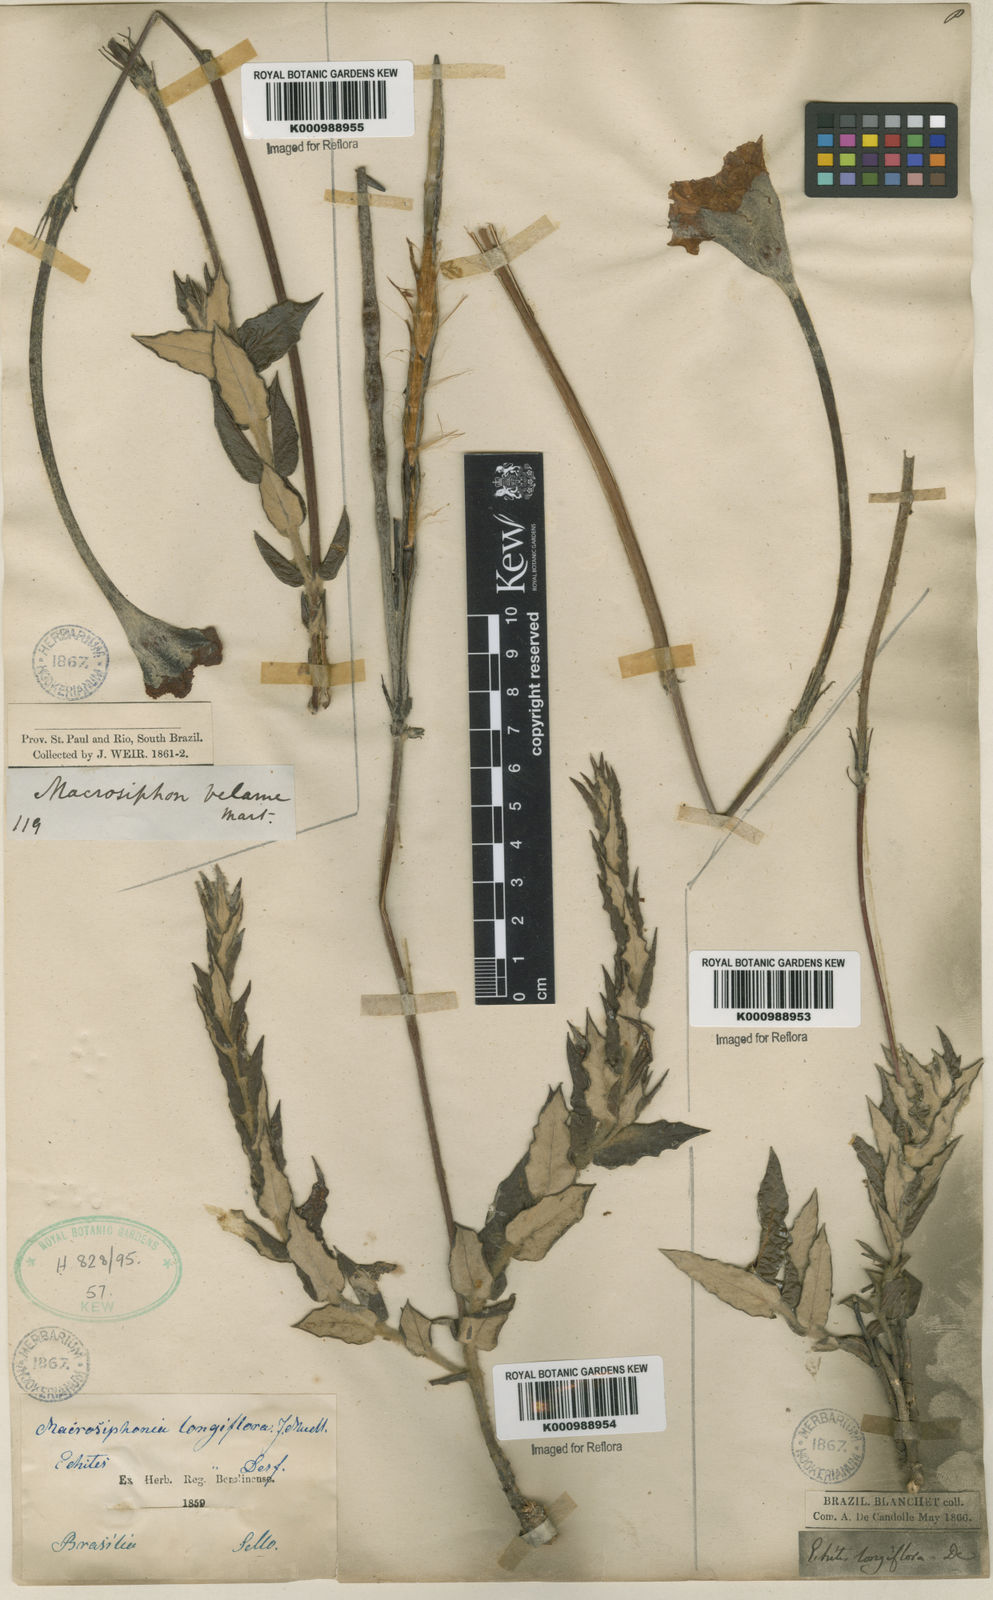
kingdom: Plantae
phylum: Tracheophyta
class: Magnoliopsida
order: Gentianales
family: Apocynaceae
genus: Mandevilla
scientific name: Mandevilla longiflora
